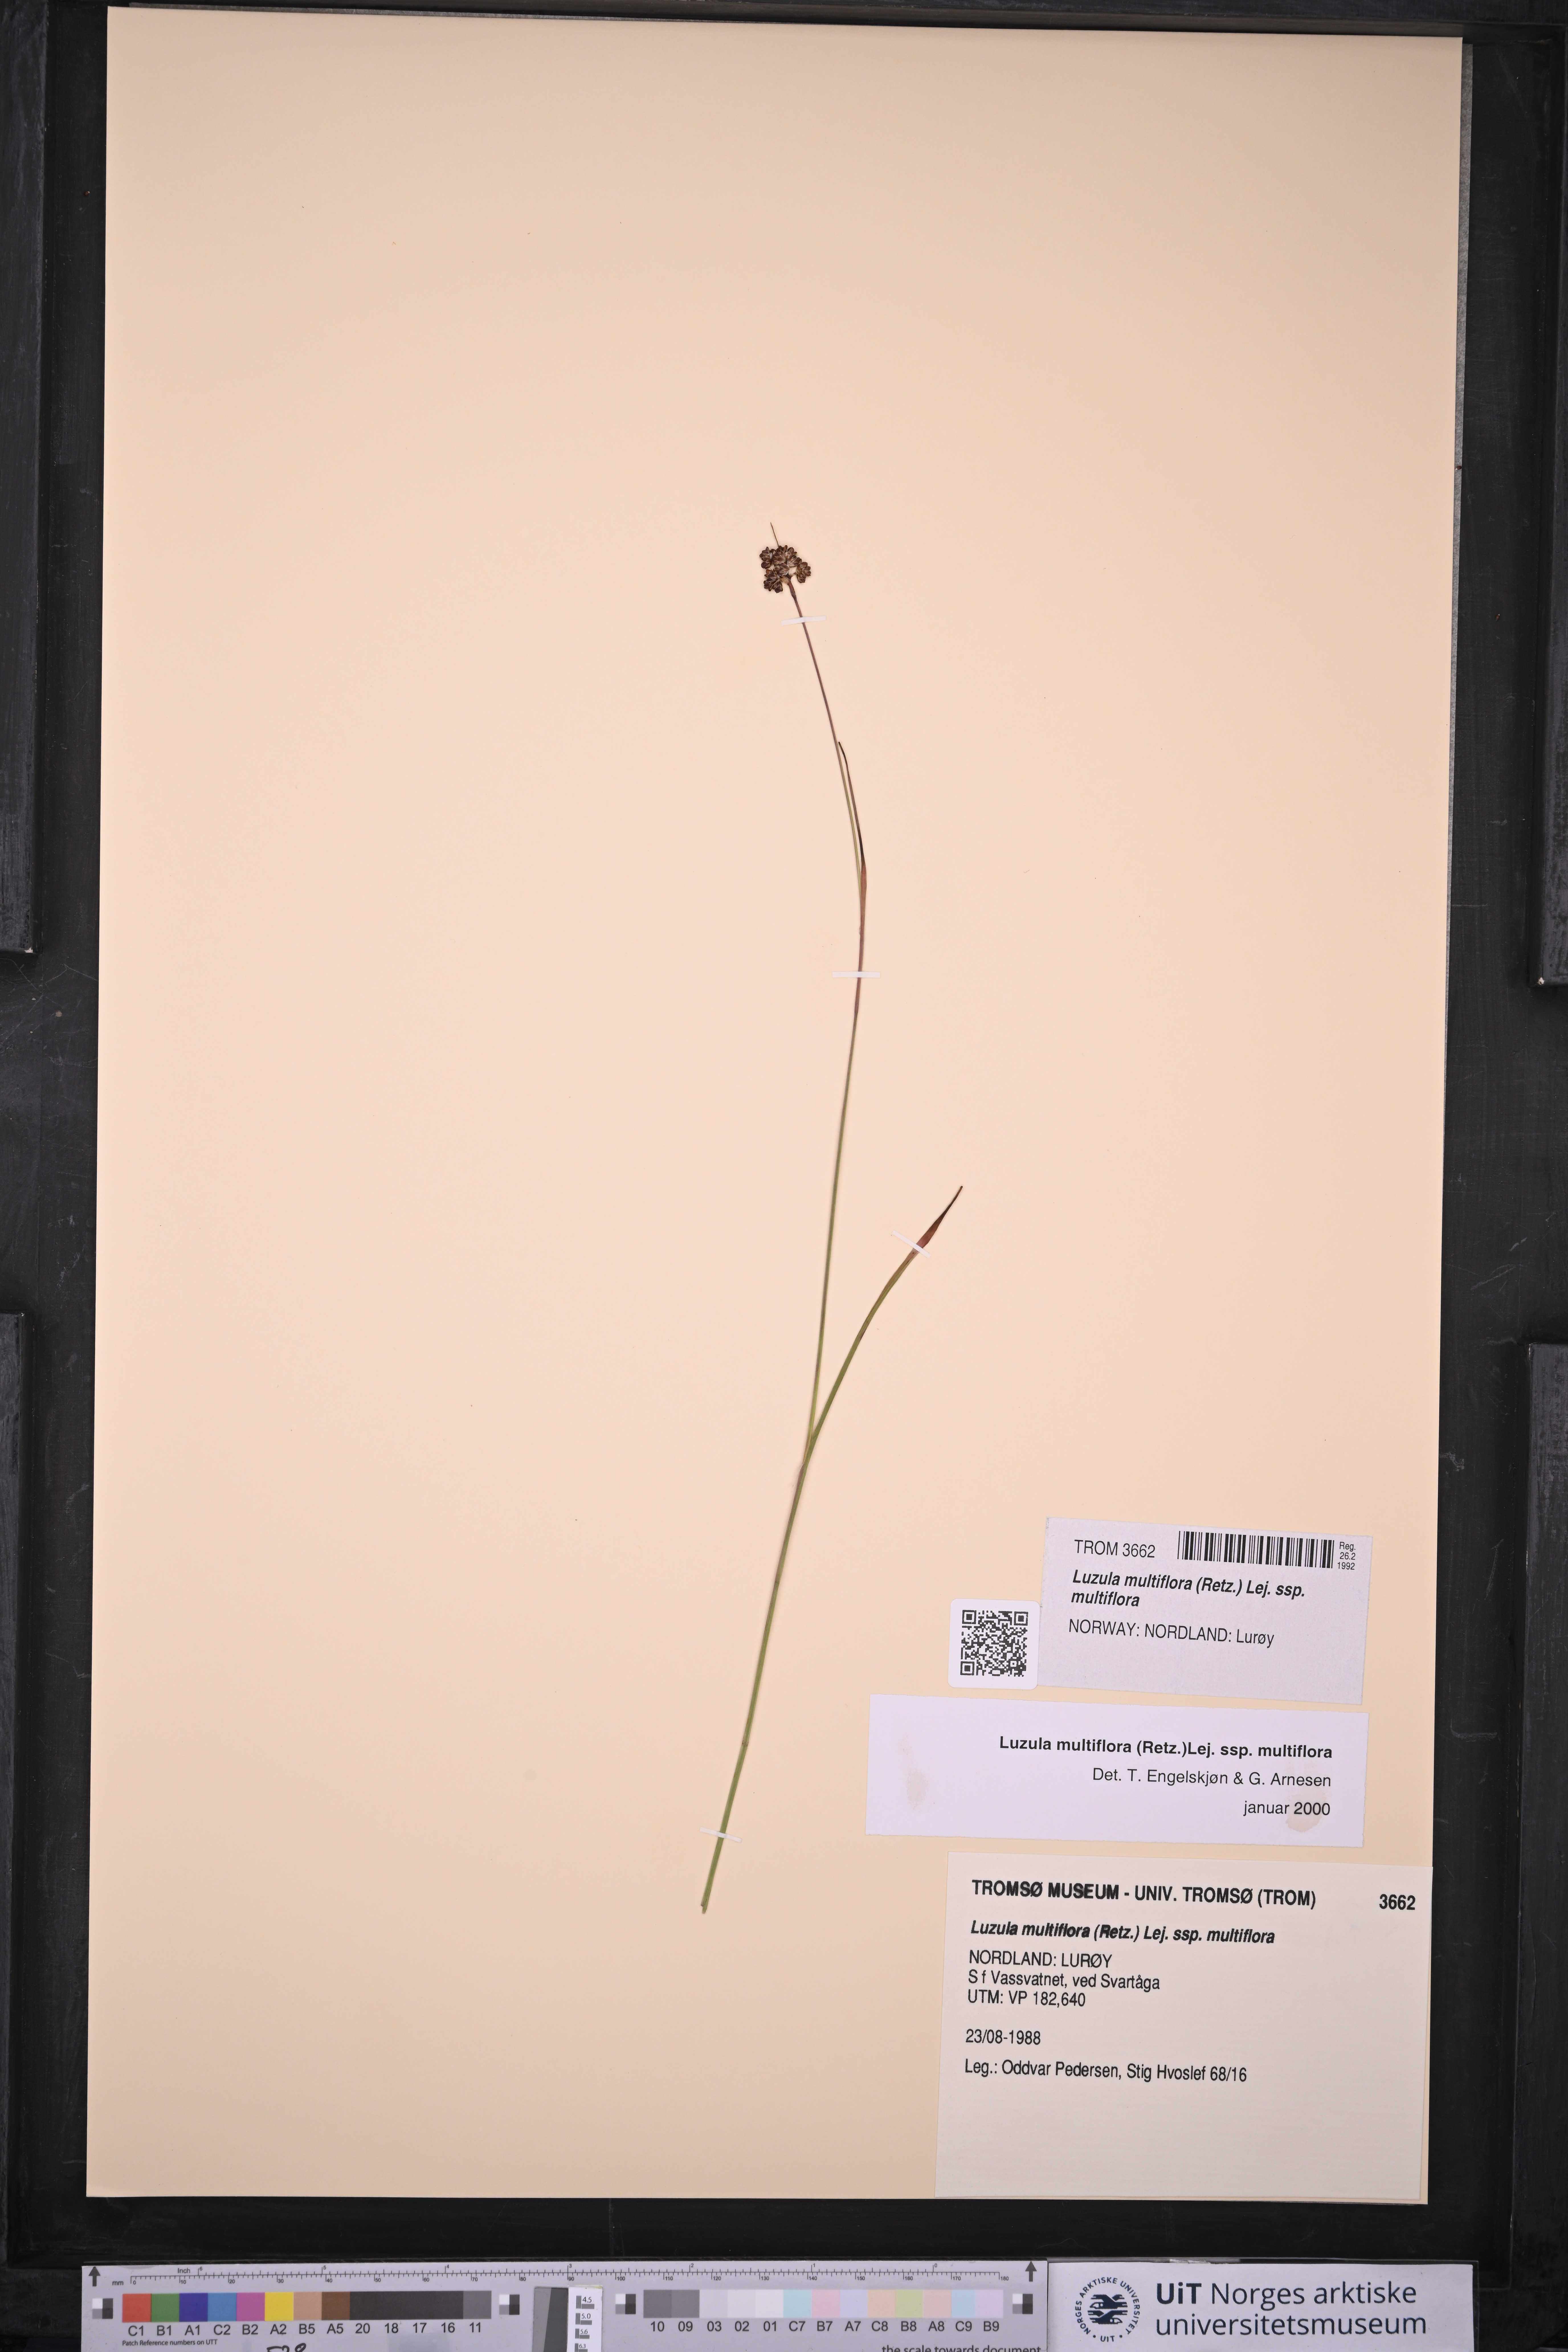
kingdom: Plantae
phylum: Tracheophyta
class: Liliopsida
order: Poales
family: Juncaceae
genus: Luzula
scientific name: Luzula multiflora
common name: Heath wood-rush
